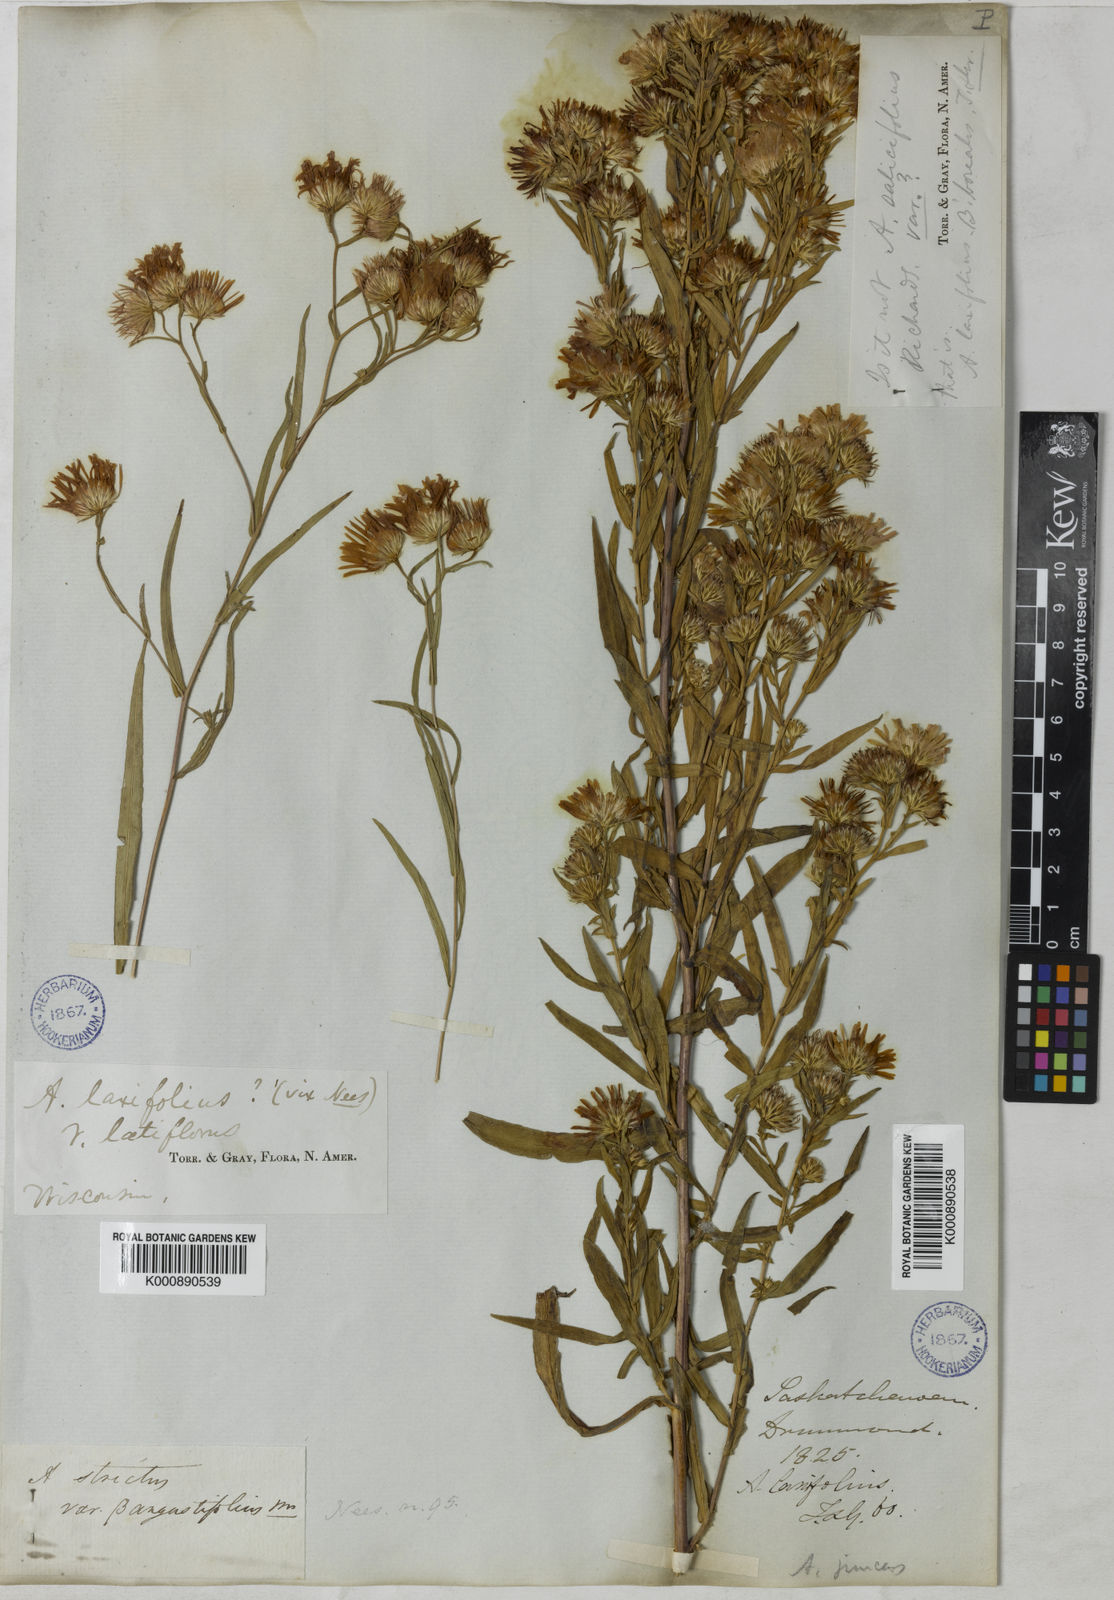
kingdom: Plantae
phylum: Tracheophyta
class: Magnoliopsida
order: Asterales
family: Asteraceae
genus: Symphyotrichum
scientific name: Symphyotrichum novi-belgii
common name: Michaelmas daisy
